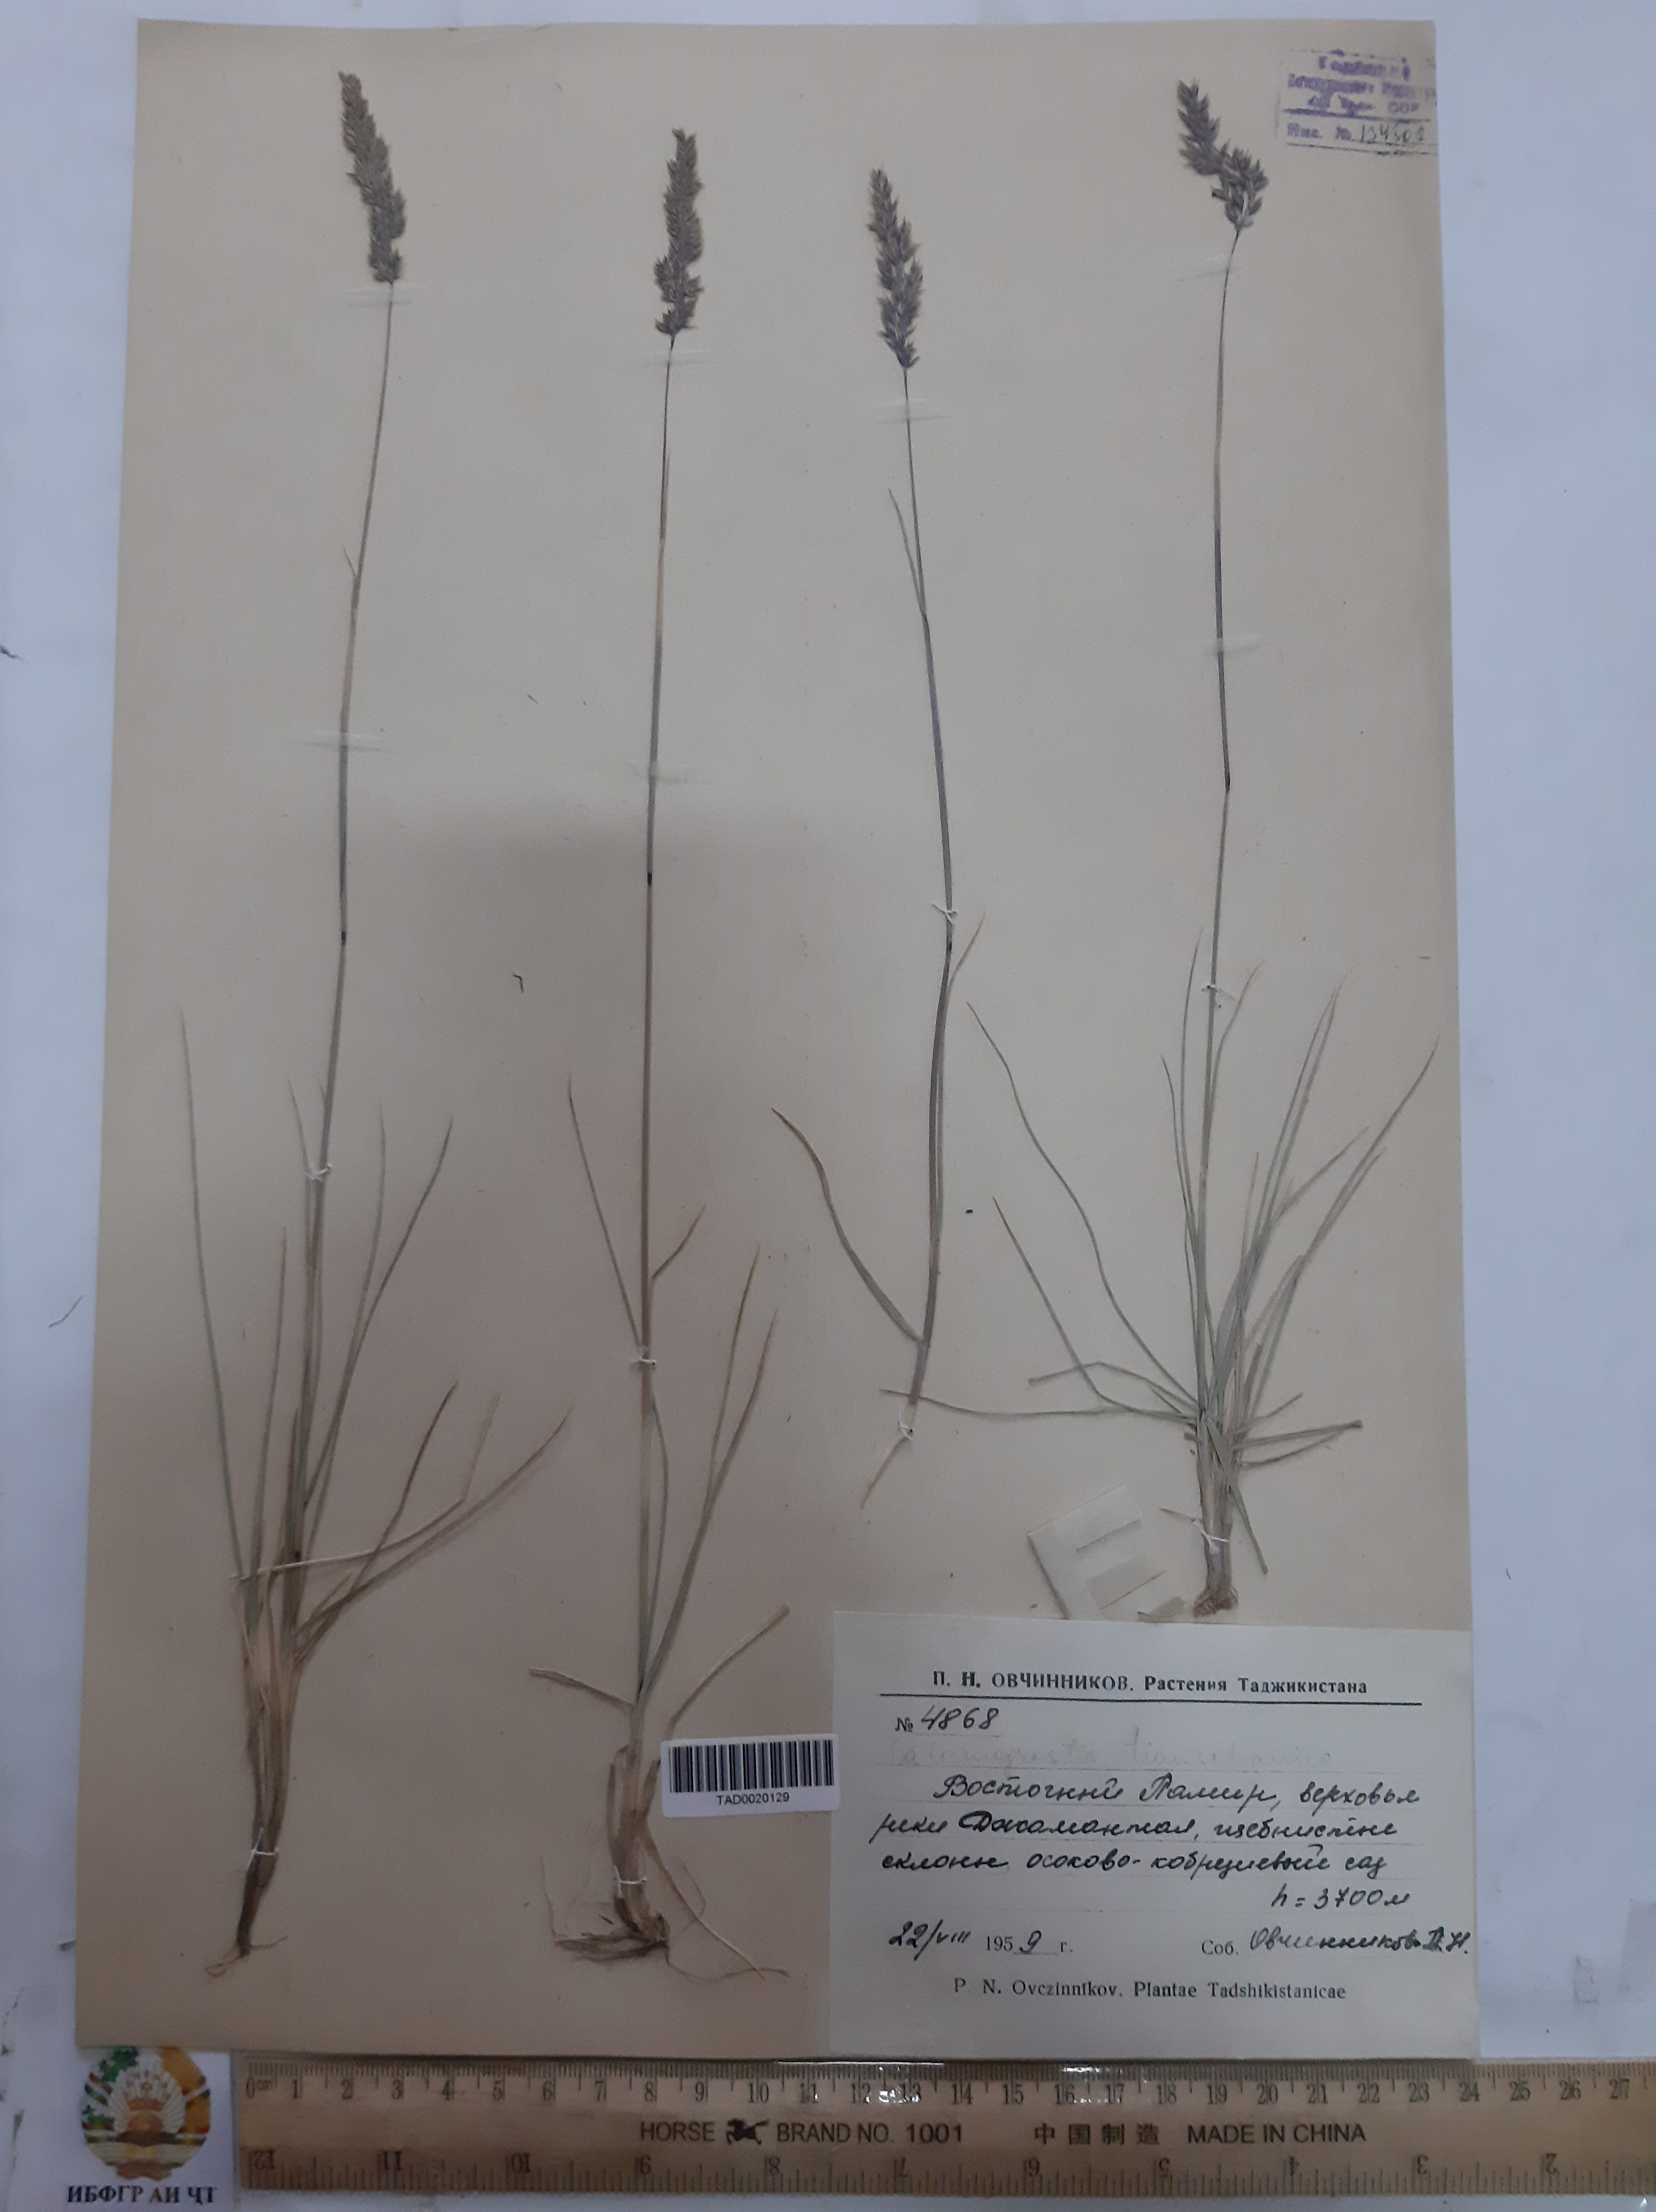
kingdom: Plantae
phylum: Tracheophyta
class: Liliopsida
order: Poales
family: Poaceae
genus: Calamagrostis
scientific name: Calamagrostis tianschanica
